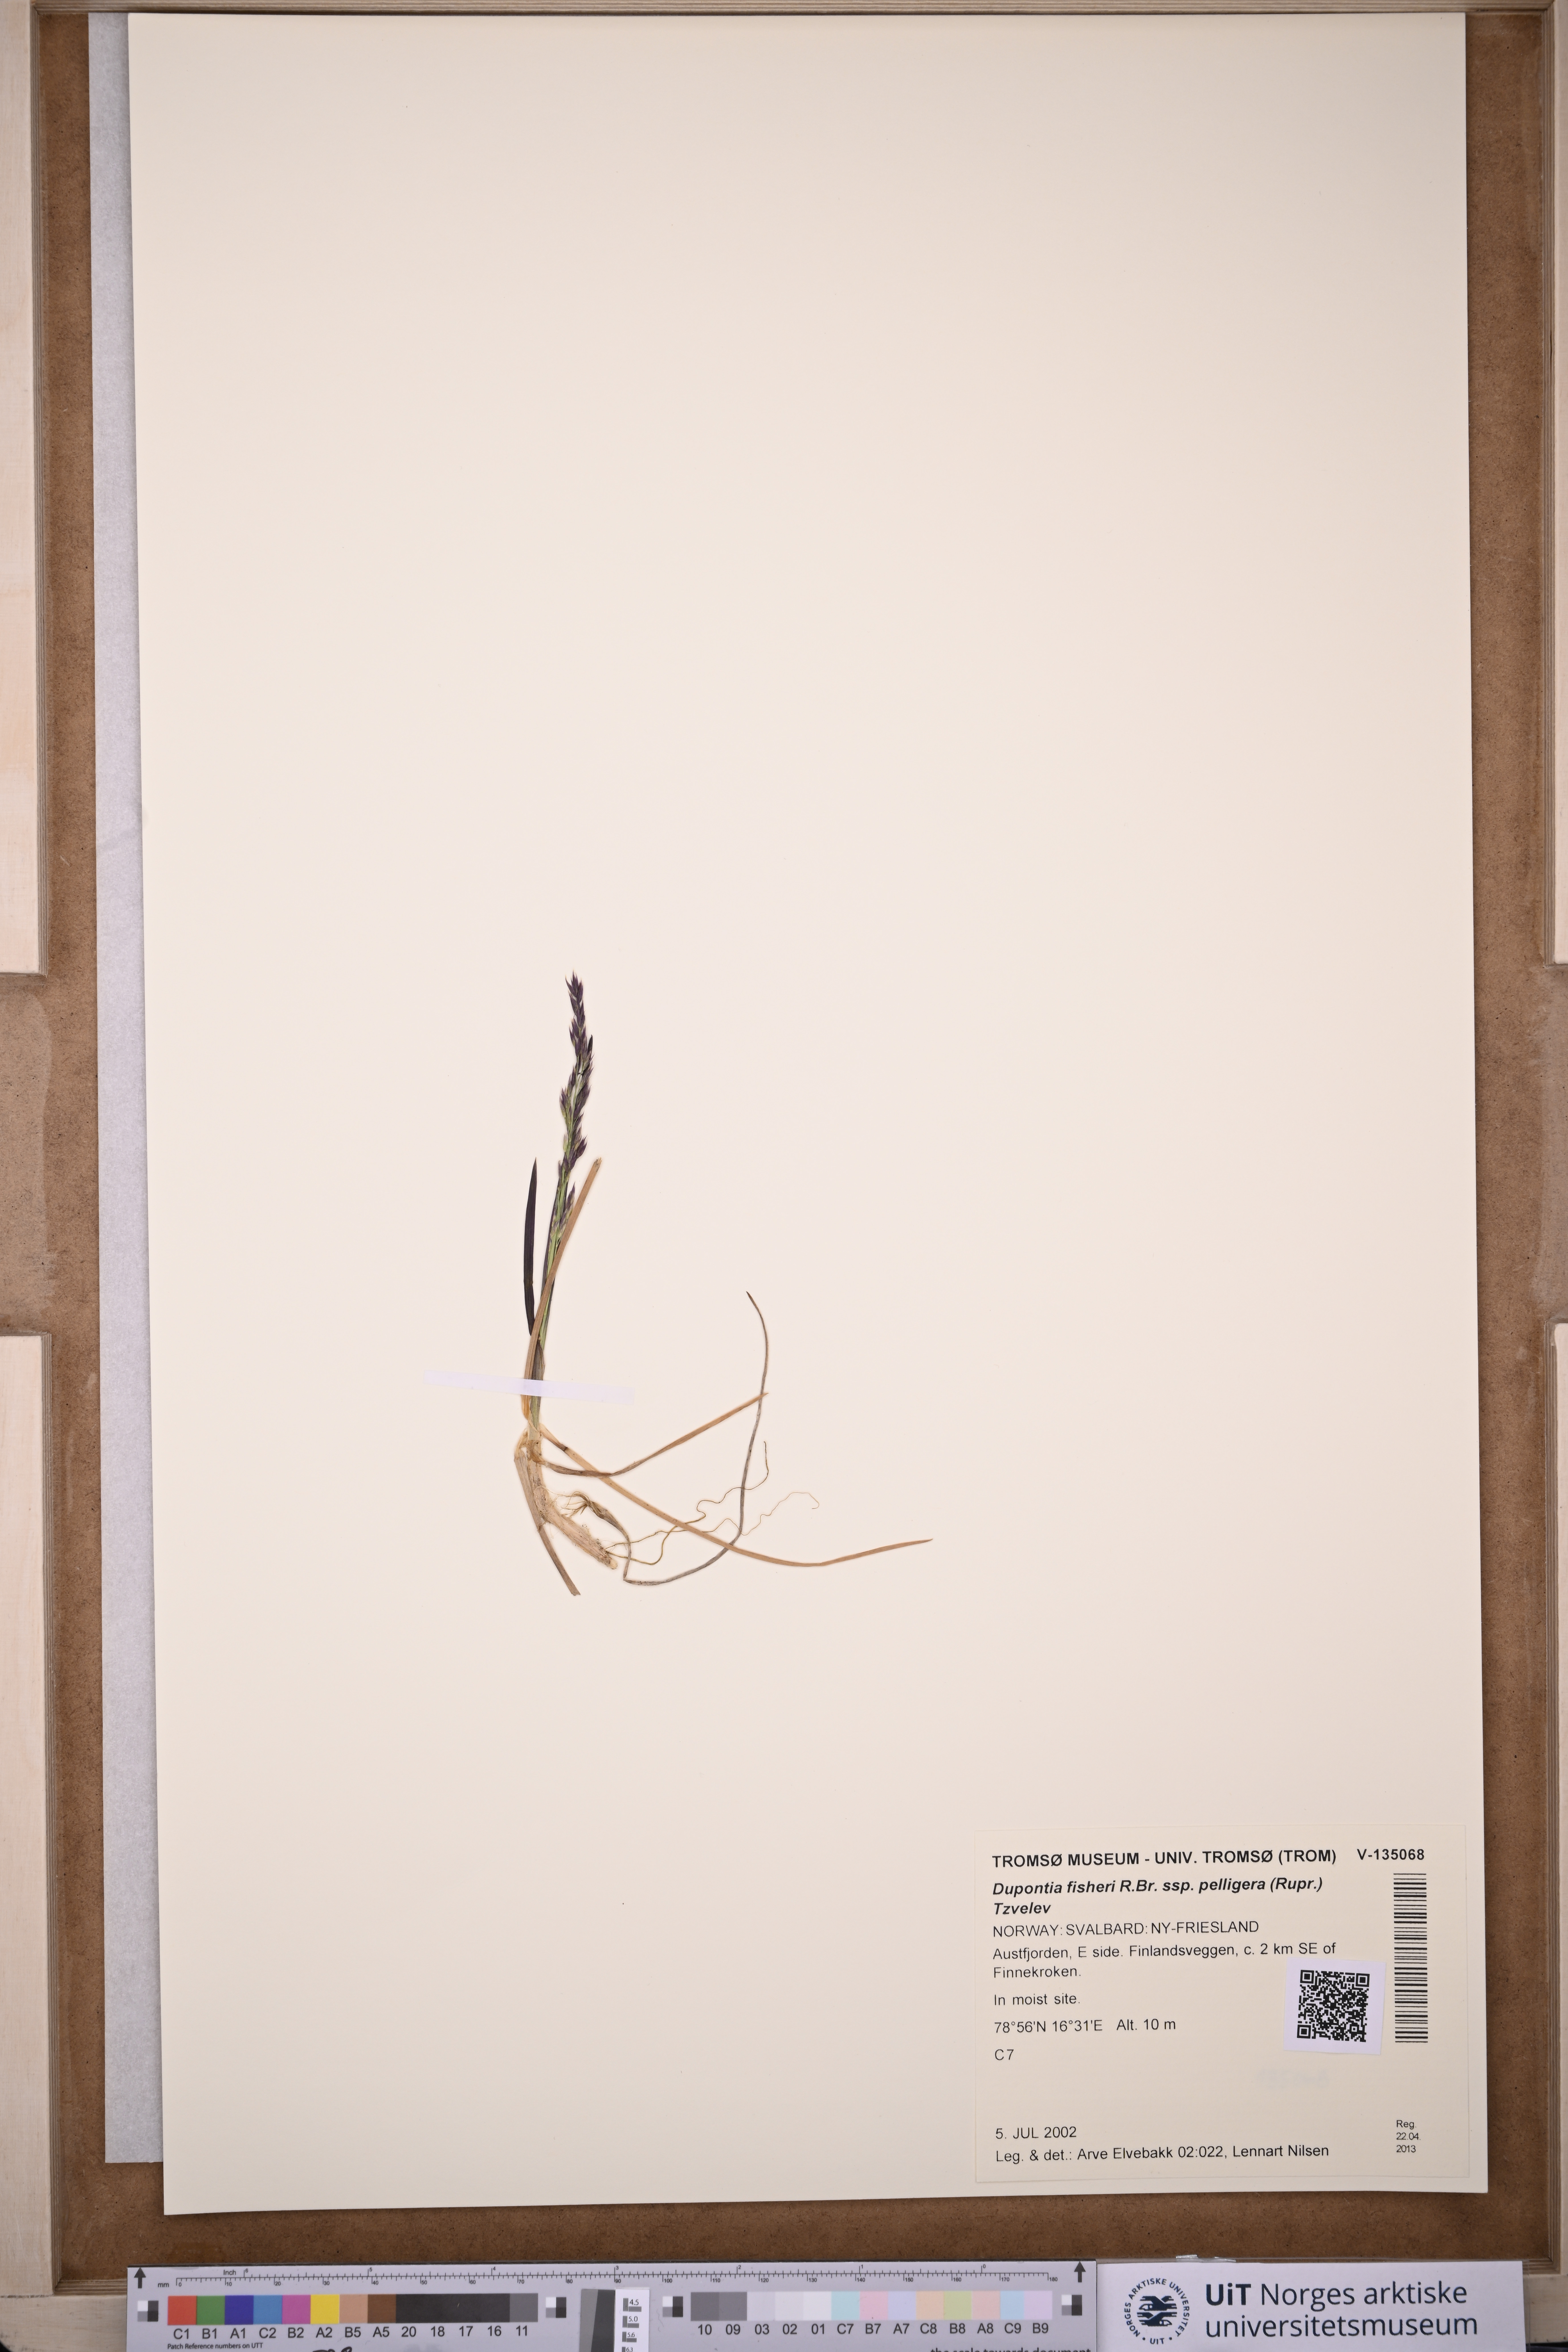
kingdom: Plantae
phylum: Tracheophyta
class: Liliopsida
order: Poales
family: Poaceae
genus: Dupontia
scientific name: Dupontia fisheri
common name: Tundra grass
